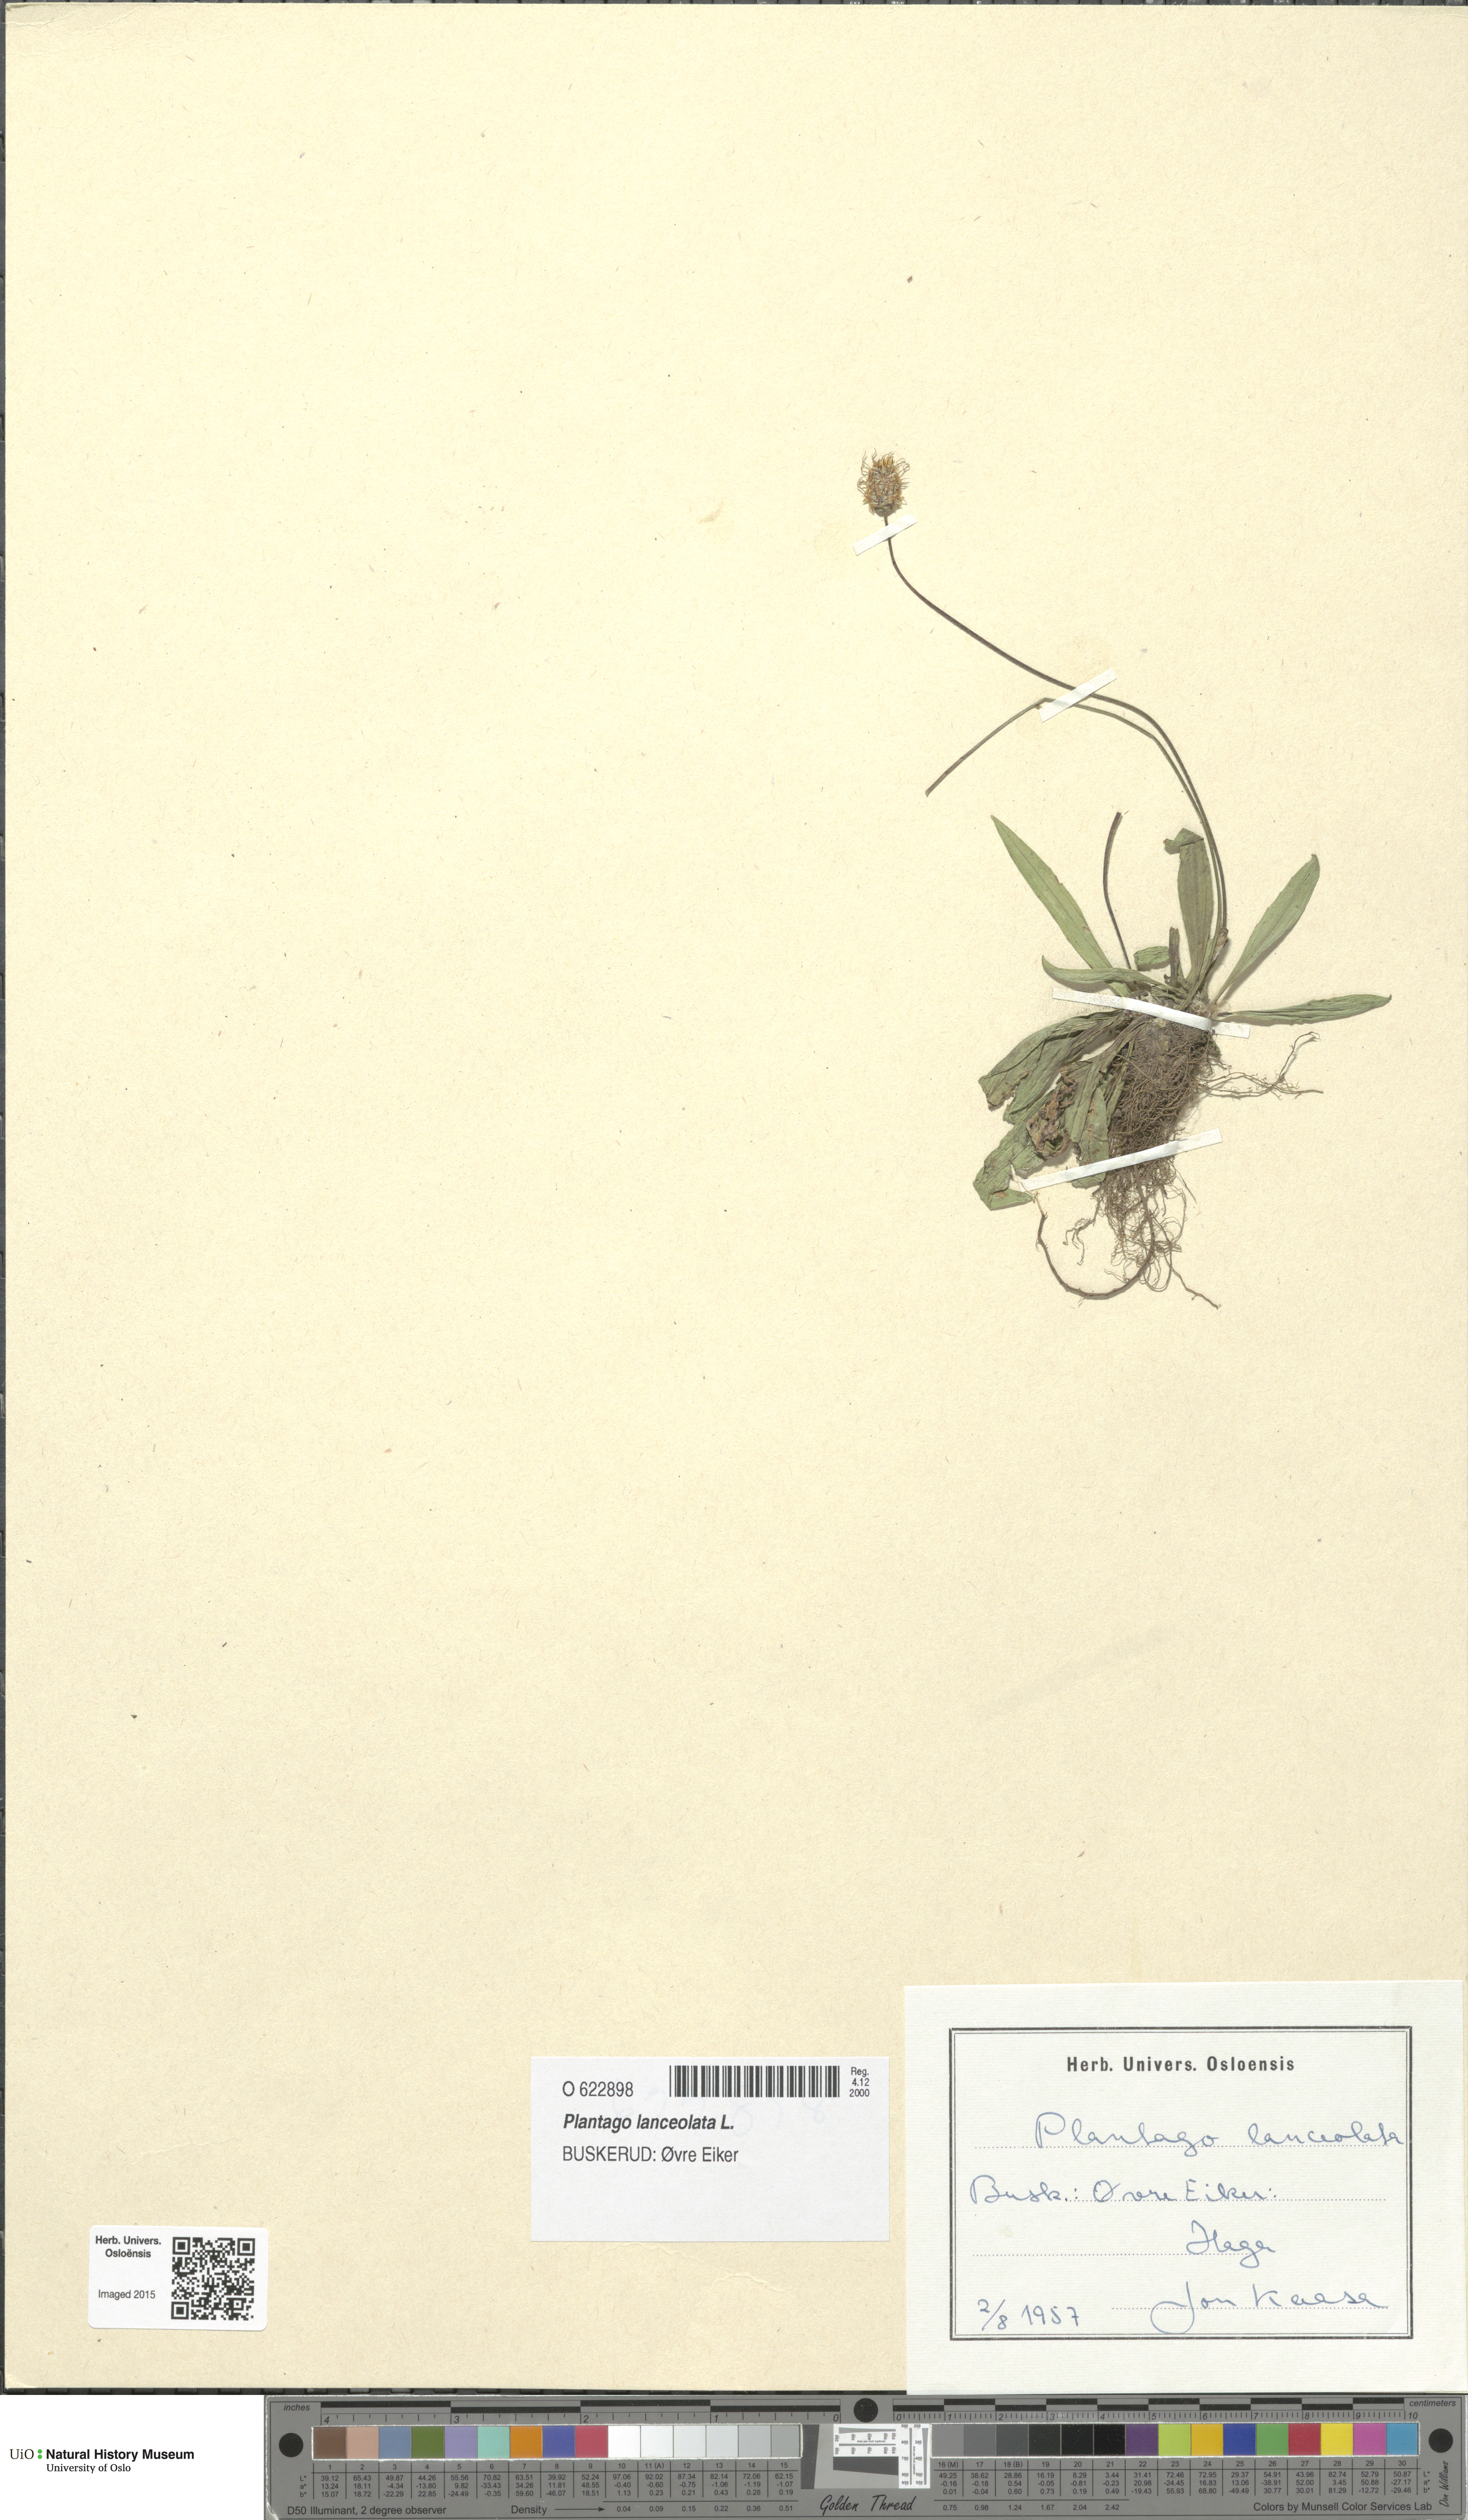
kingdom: Plantae
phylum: Tracheophyta
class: Magnoliopsida
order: Lamiales
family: Plantaginaceae
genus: Plantago
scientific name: Plantago lanceolata
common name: Ribwort plantain
